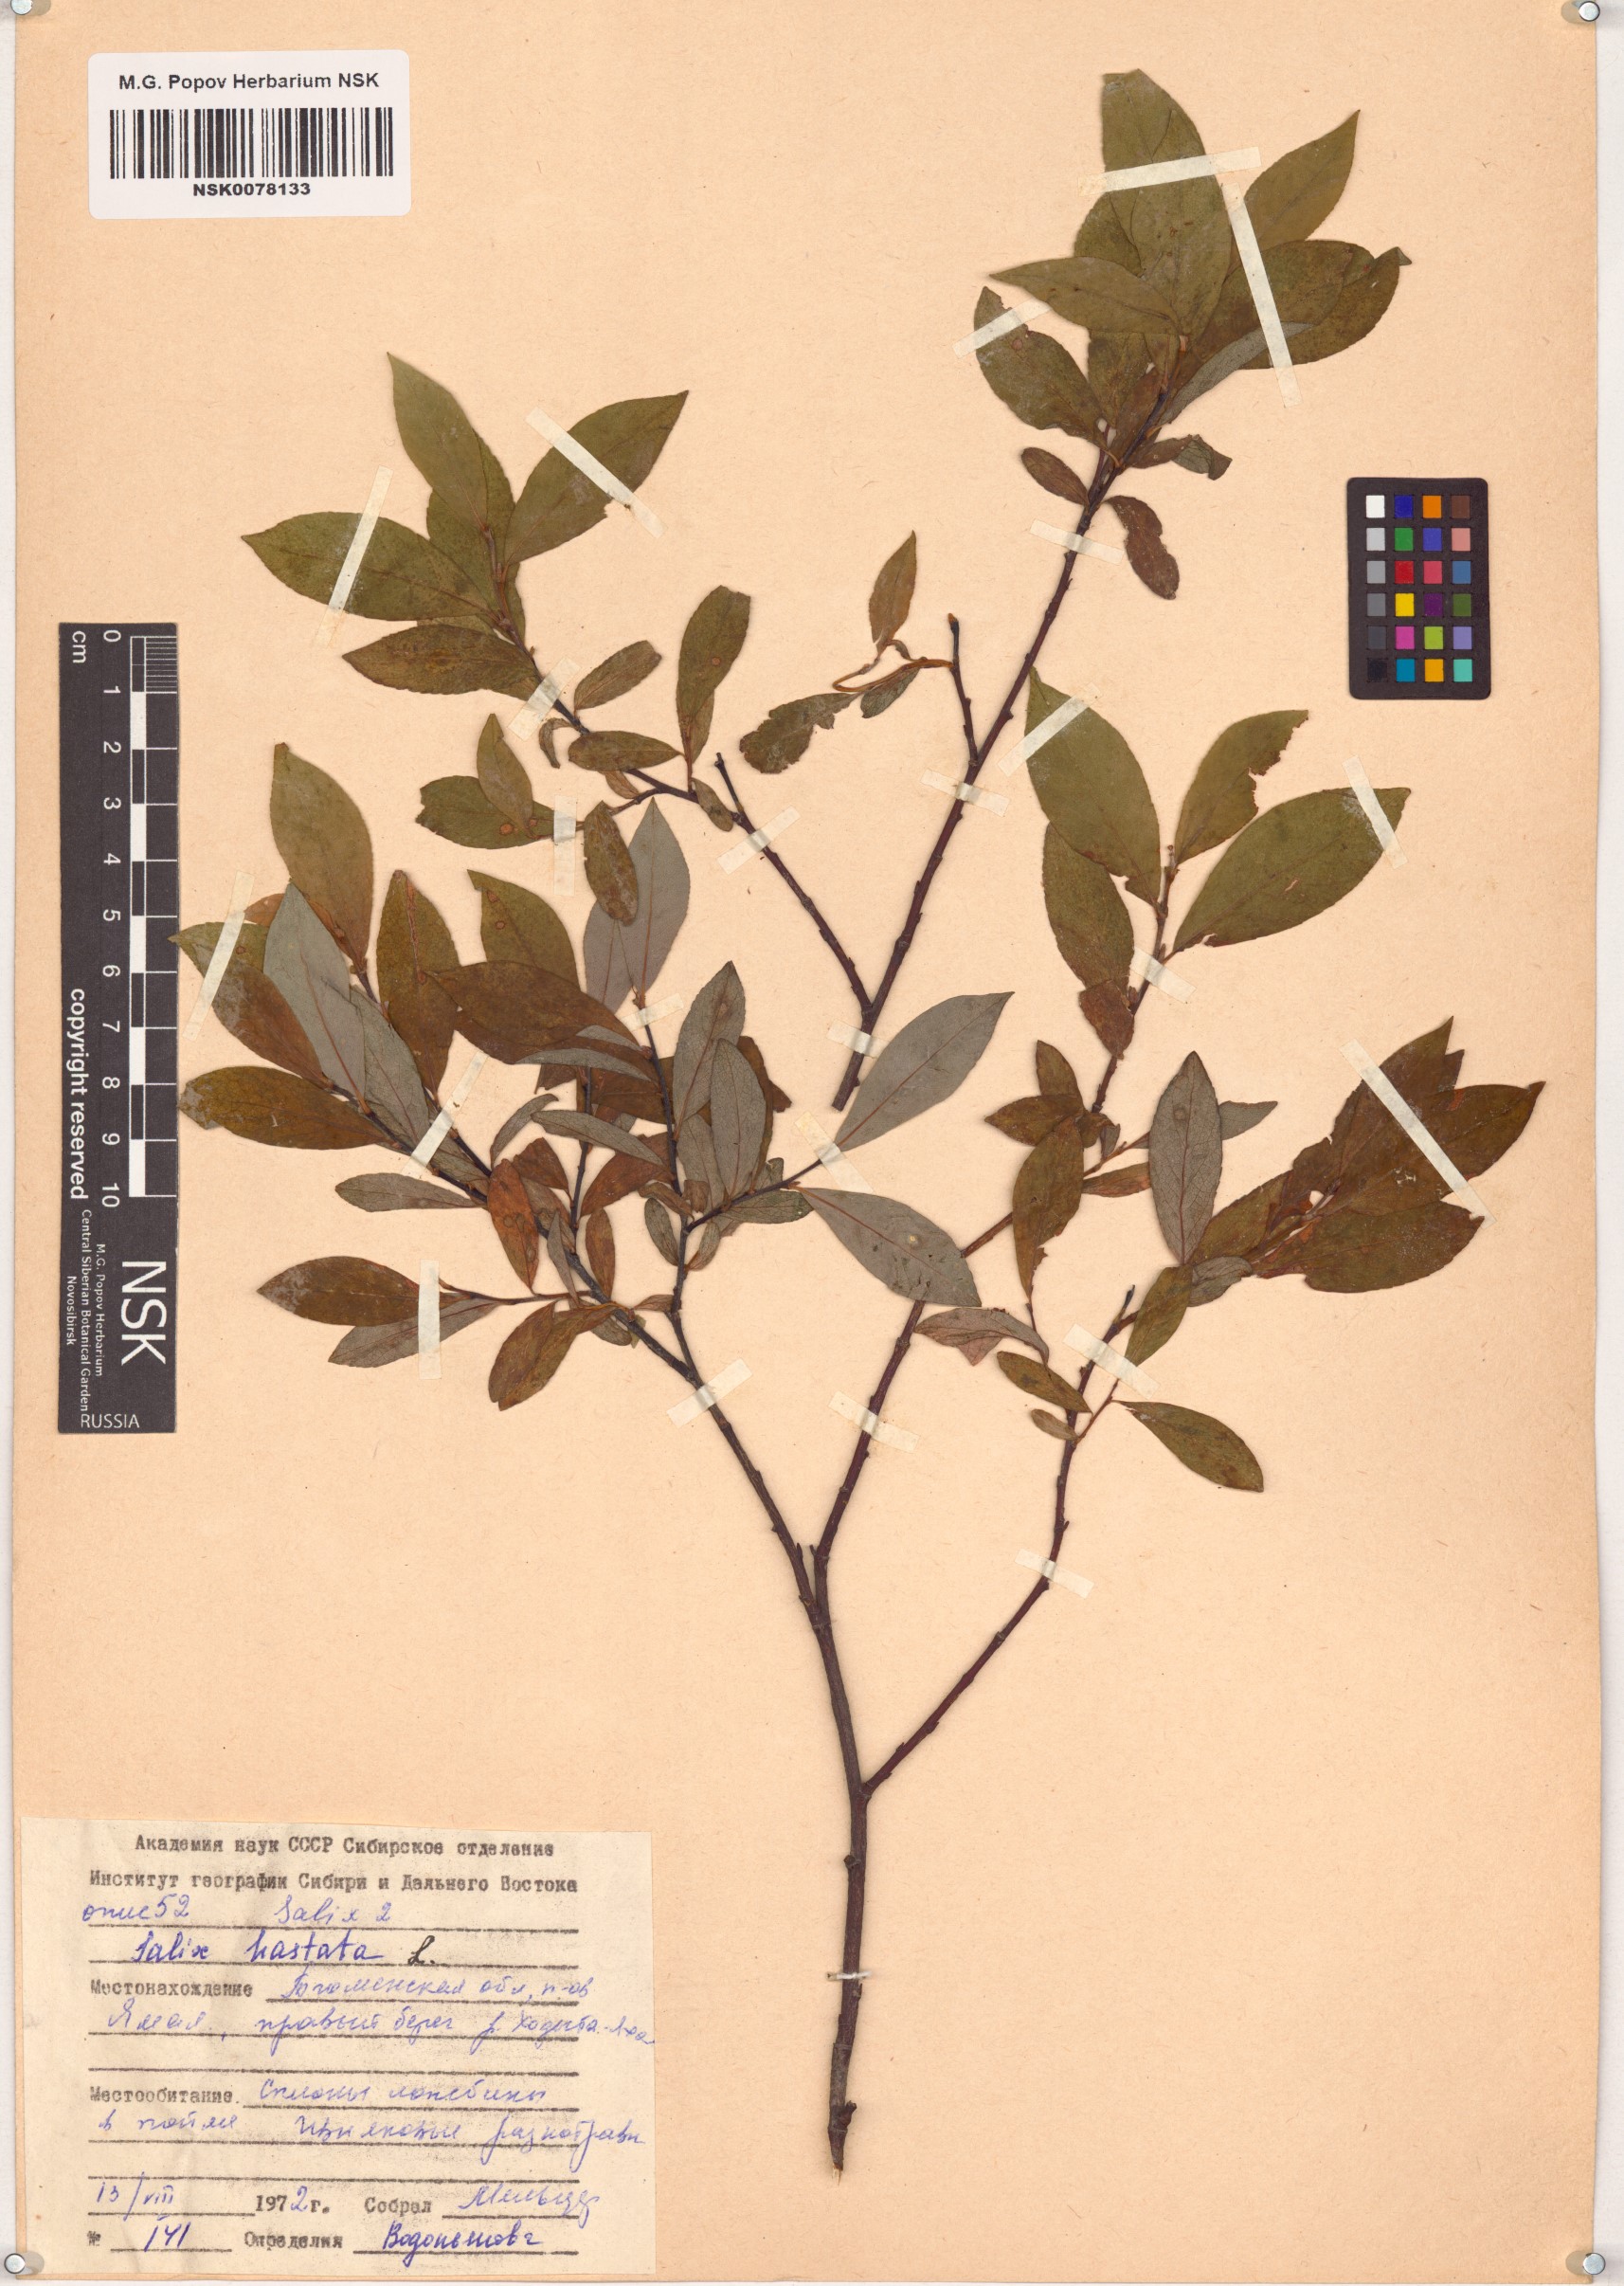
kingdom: Plantae
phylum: Tracheophyta
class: Magnoliopsida
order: Malpighiales
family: Salicaceae
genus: Salix
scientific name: Salix hastata
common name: Halberd willow
